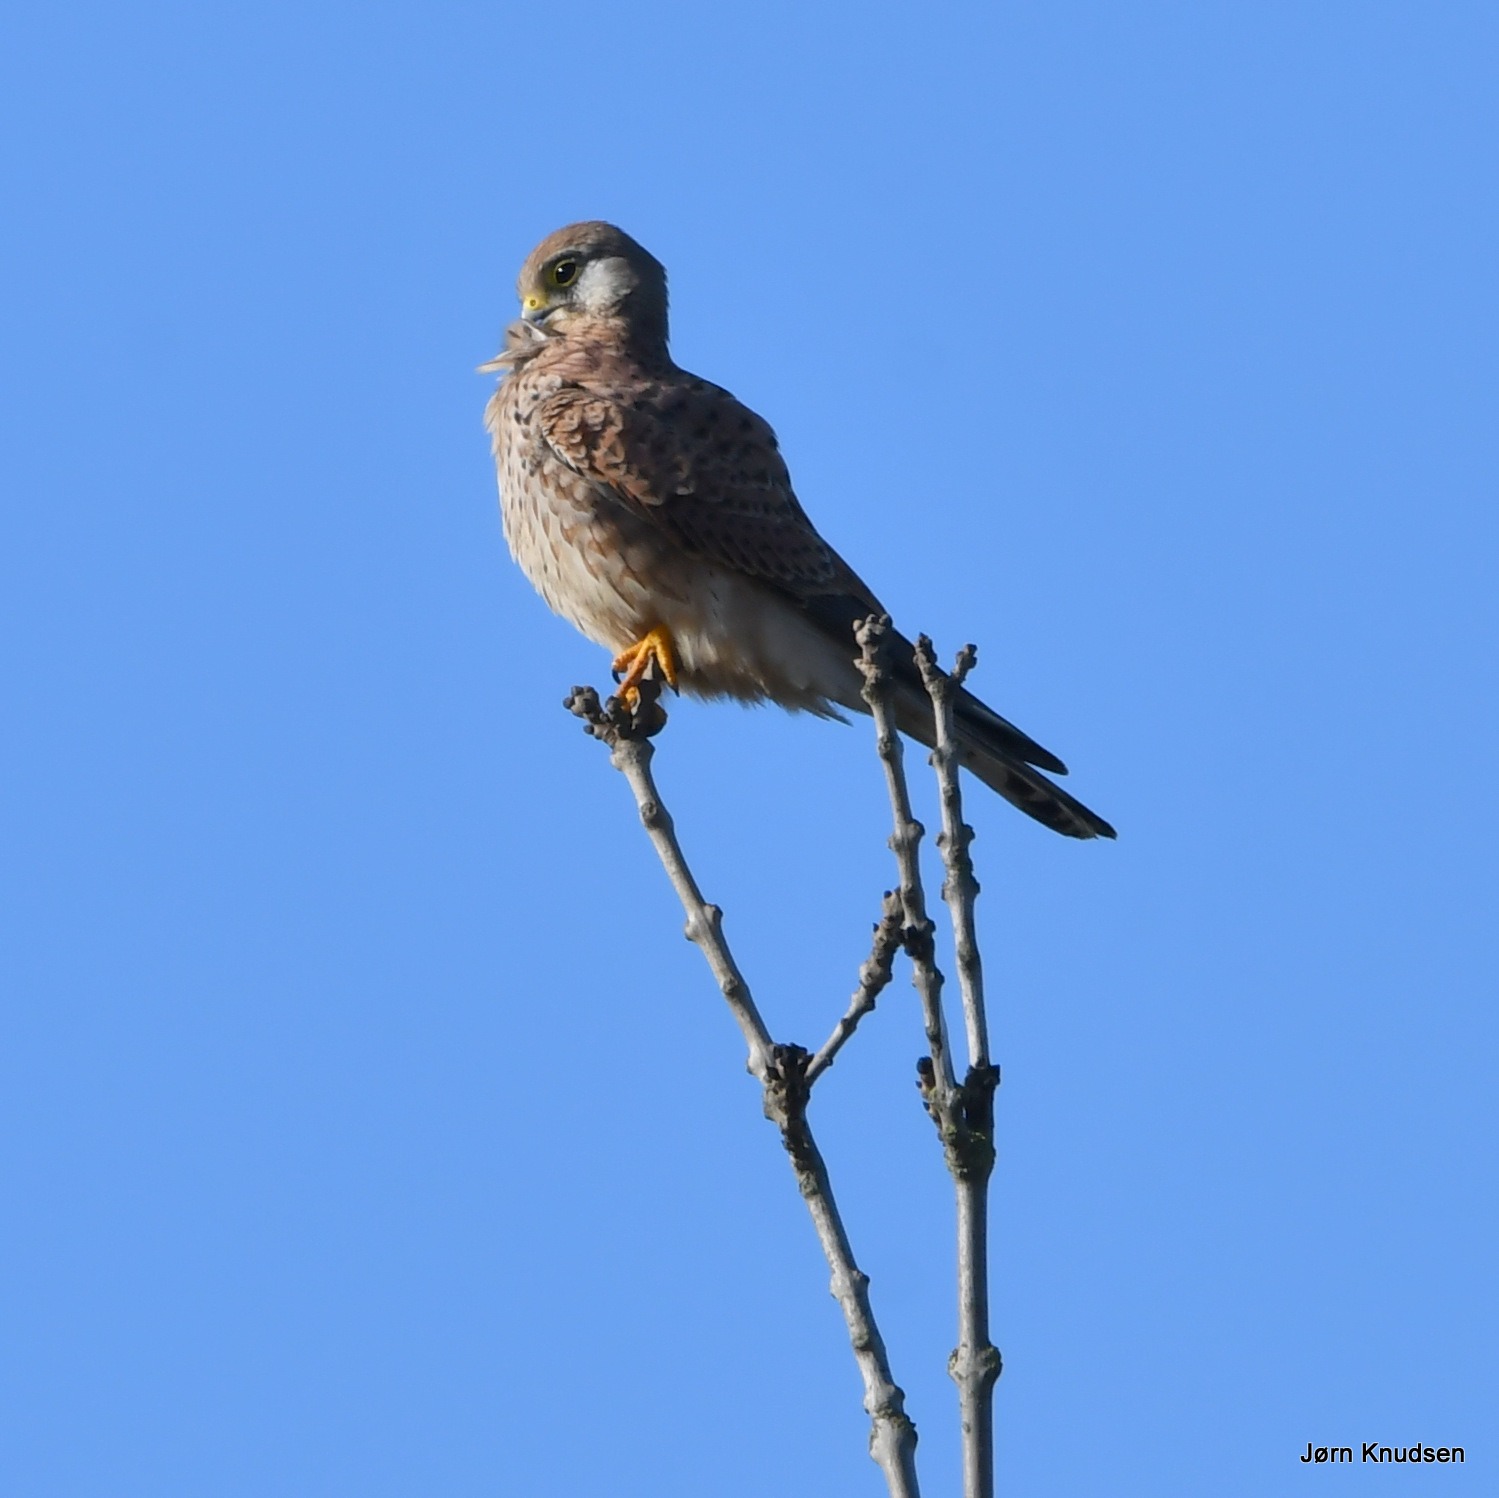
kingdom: Animalia
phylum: Chordata
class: Aves
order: Falconiformes
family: Falconidae
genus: Falco
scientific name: Falco tinnunculus
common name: Tårnfalk
